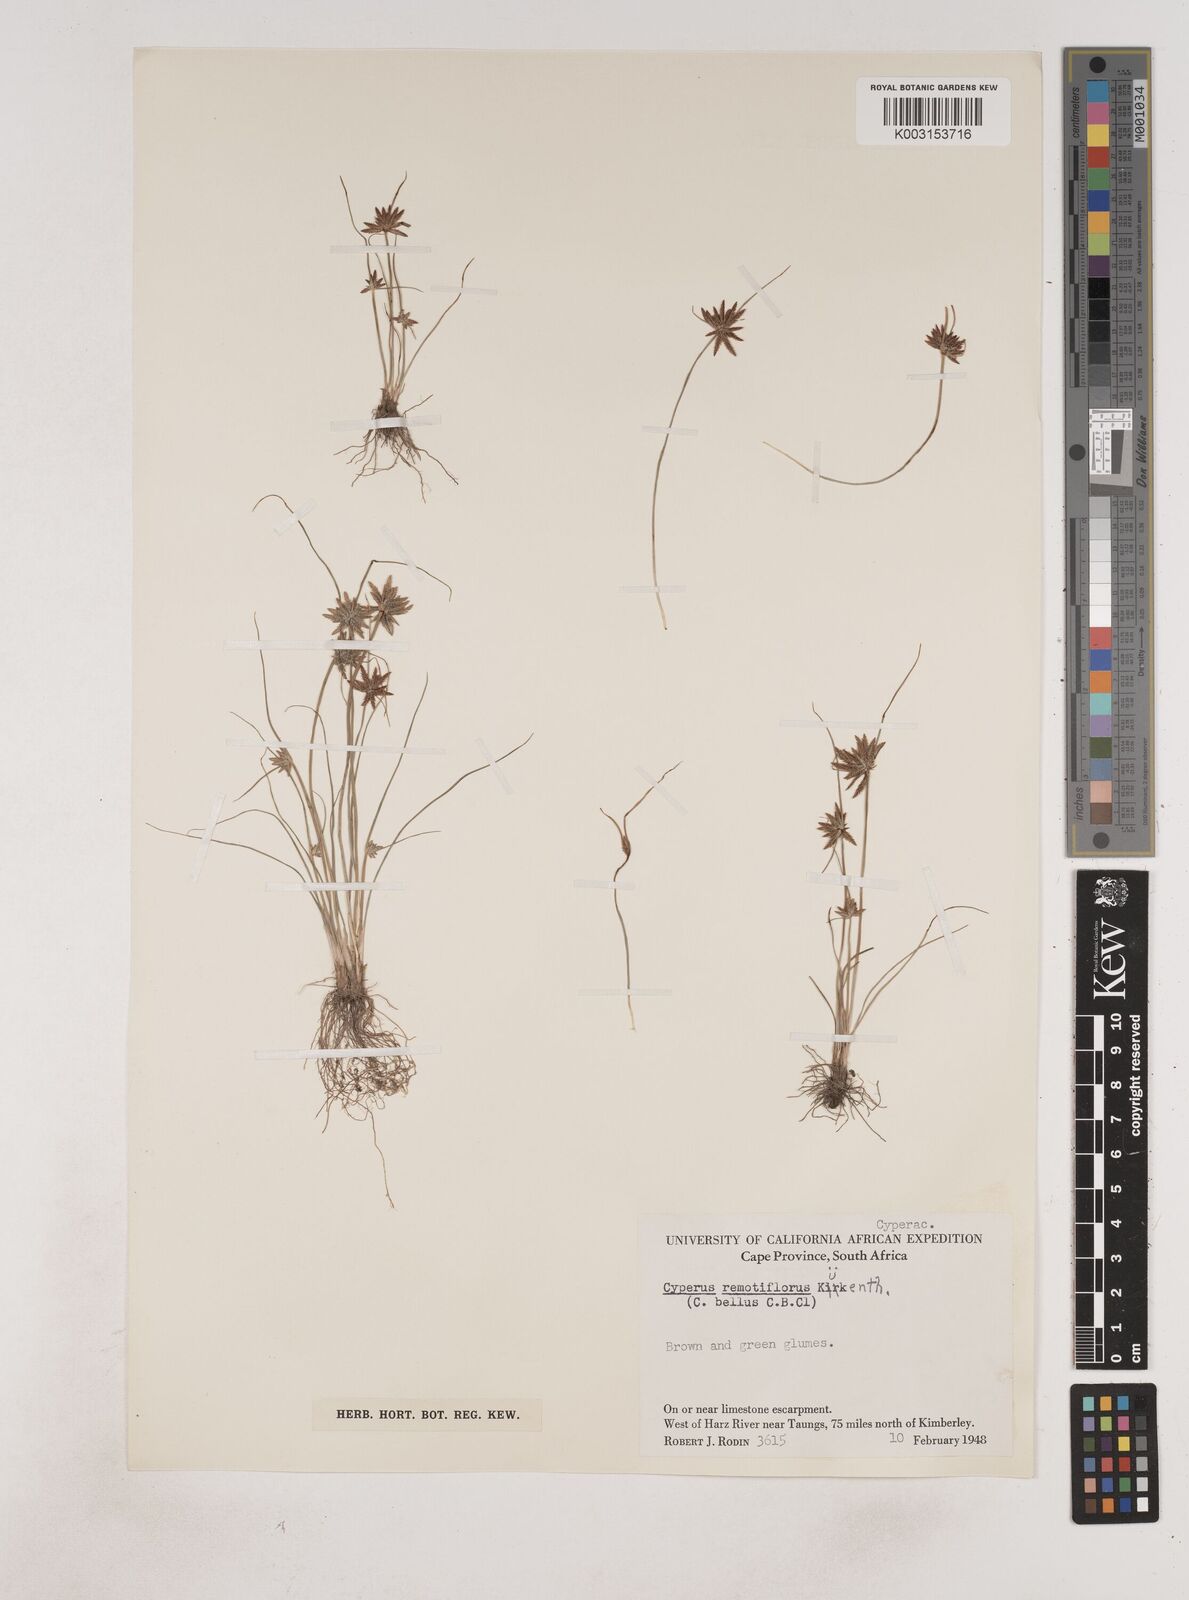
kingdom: Plantae
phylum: Tracheophyta
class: Liliopsida
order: Poales
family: Cyperaceae
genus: Cyperus
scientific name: Cyperus remotiflorus
